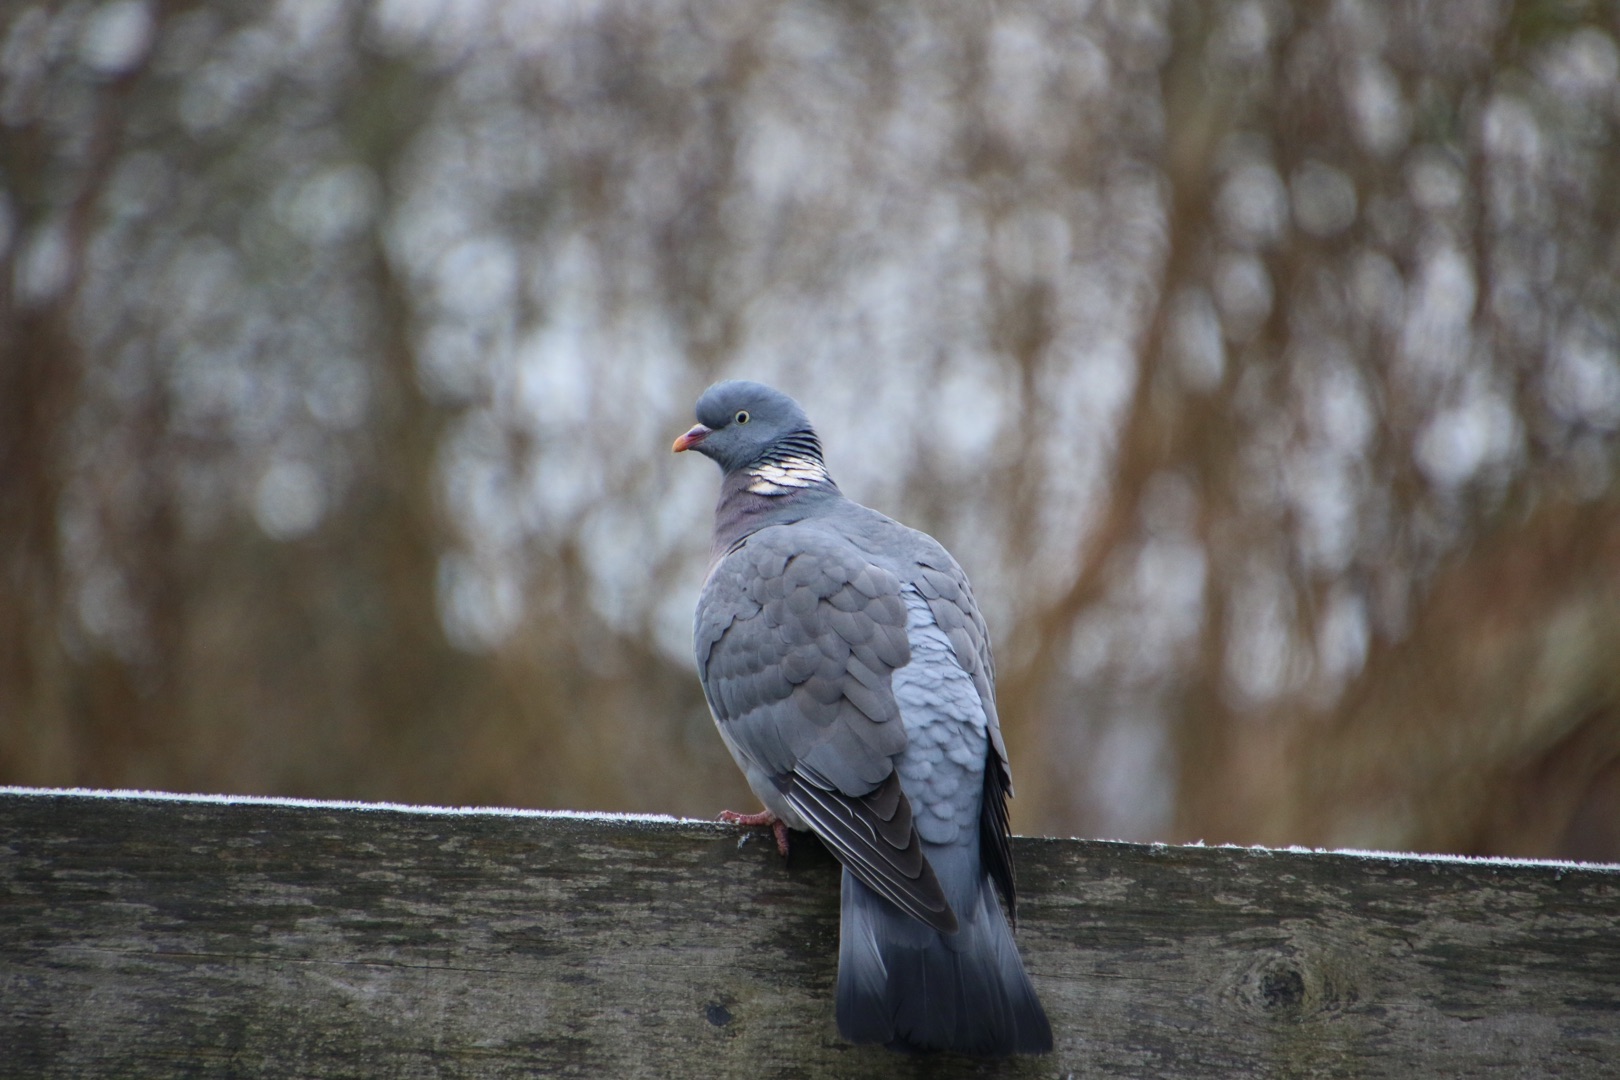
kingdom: Animalia
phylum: Chordata
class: Aves
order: Columbiformes
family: Columbidae
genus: Columba
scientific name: Columba palumbus
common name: Ringdue
